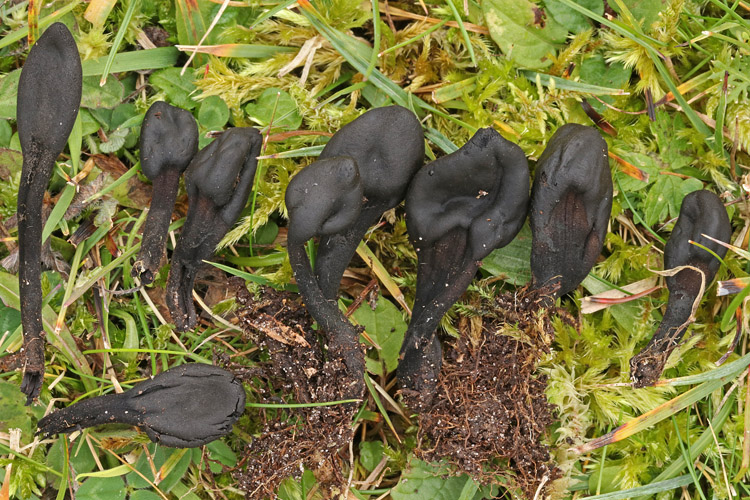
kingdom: Fungi
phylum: Ascomycota
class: Geoglossomycetes
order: Geoglossales
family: Geoglossaceae
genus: Trichoglossum
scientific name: Trichoglossum hirsutum
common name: håret jordtunge
